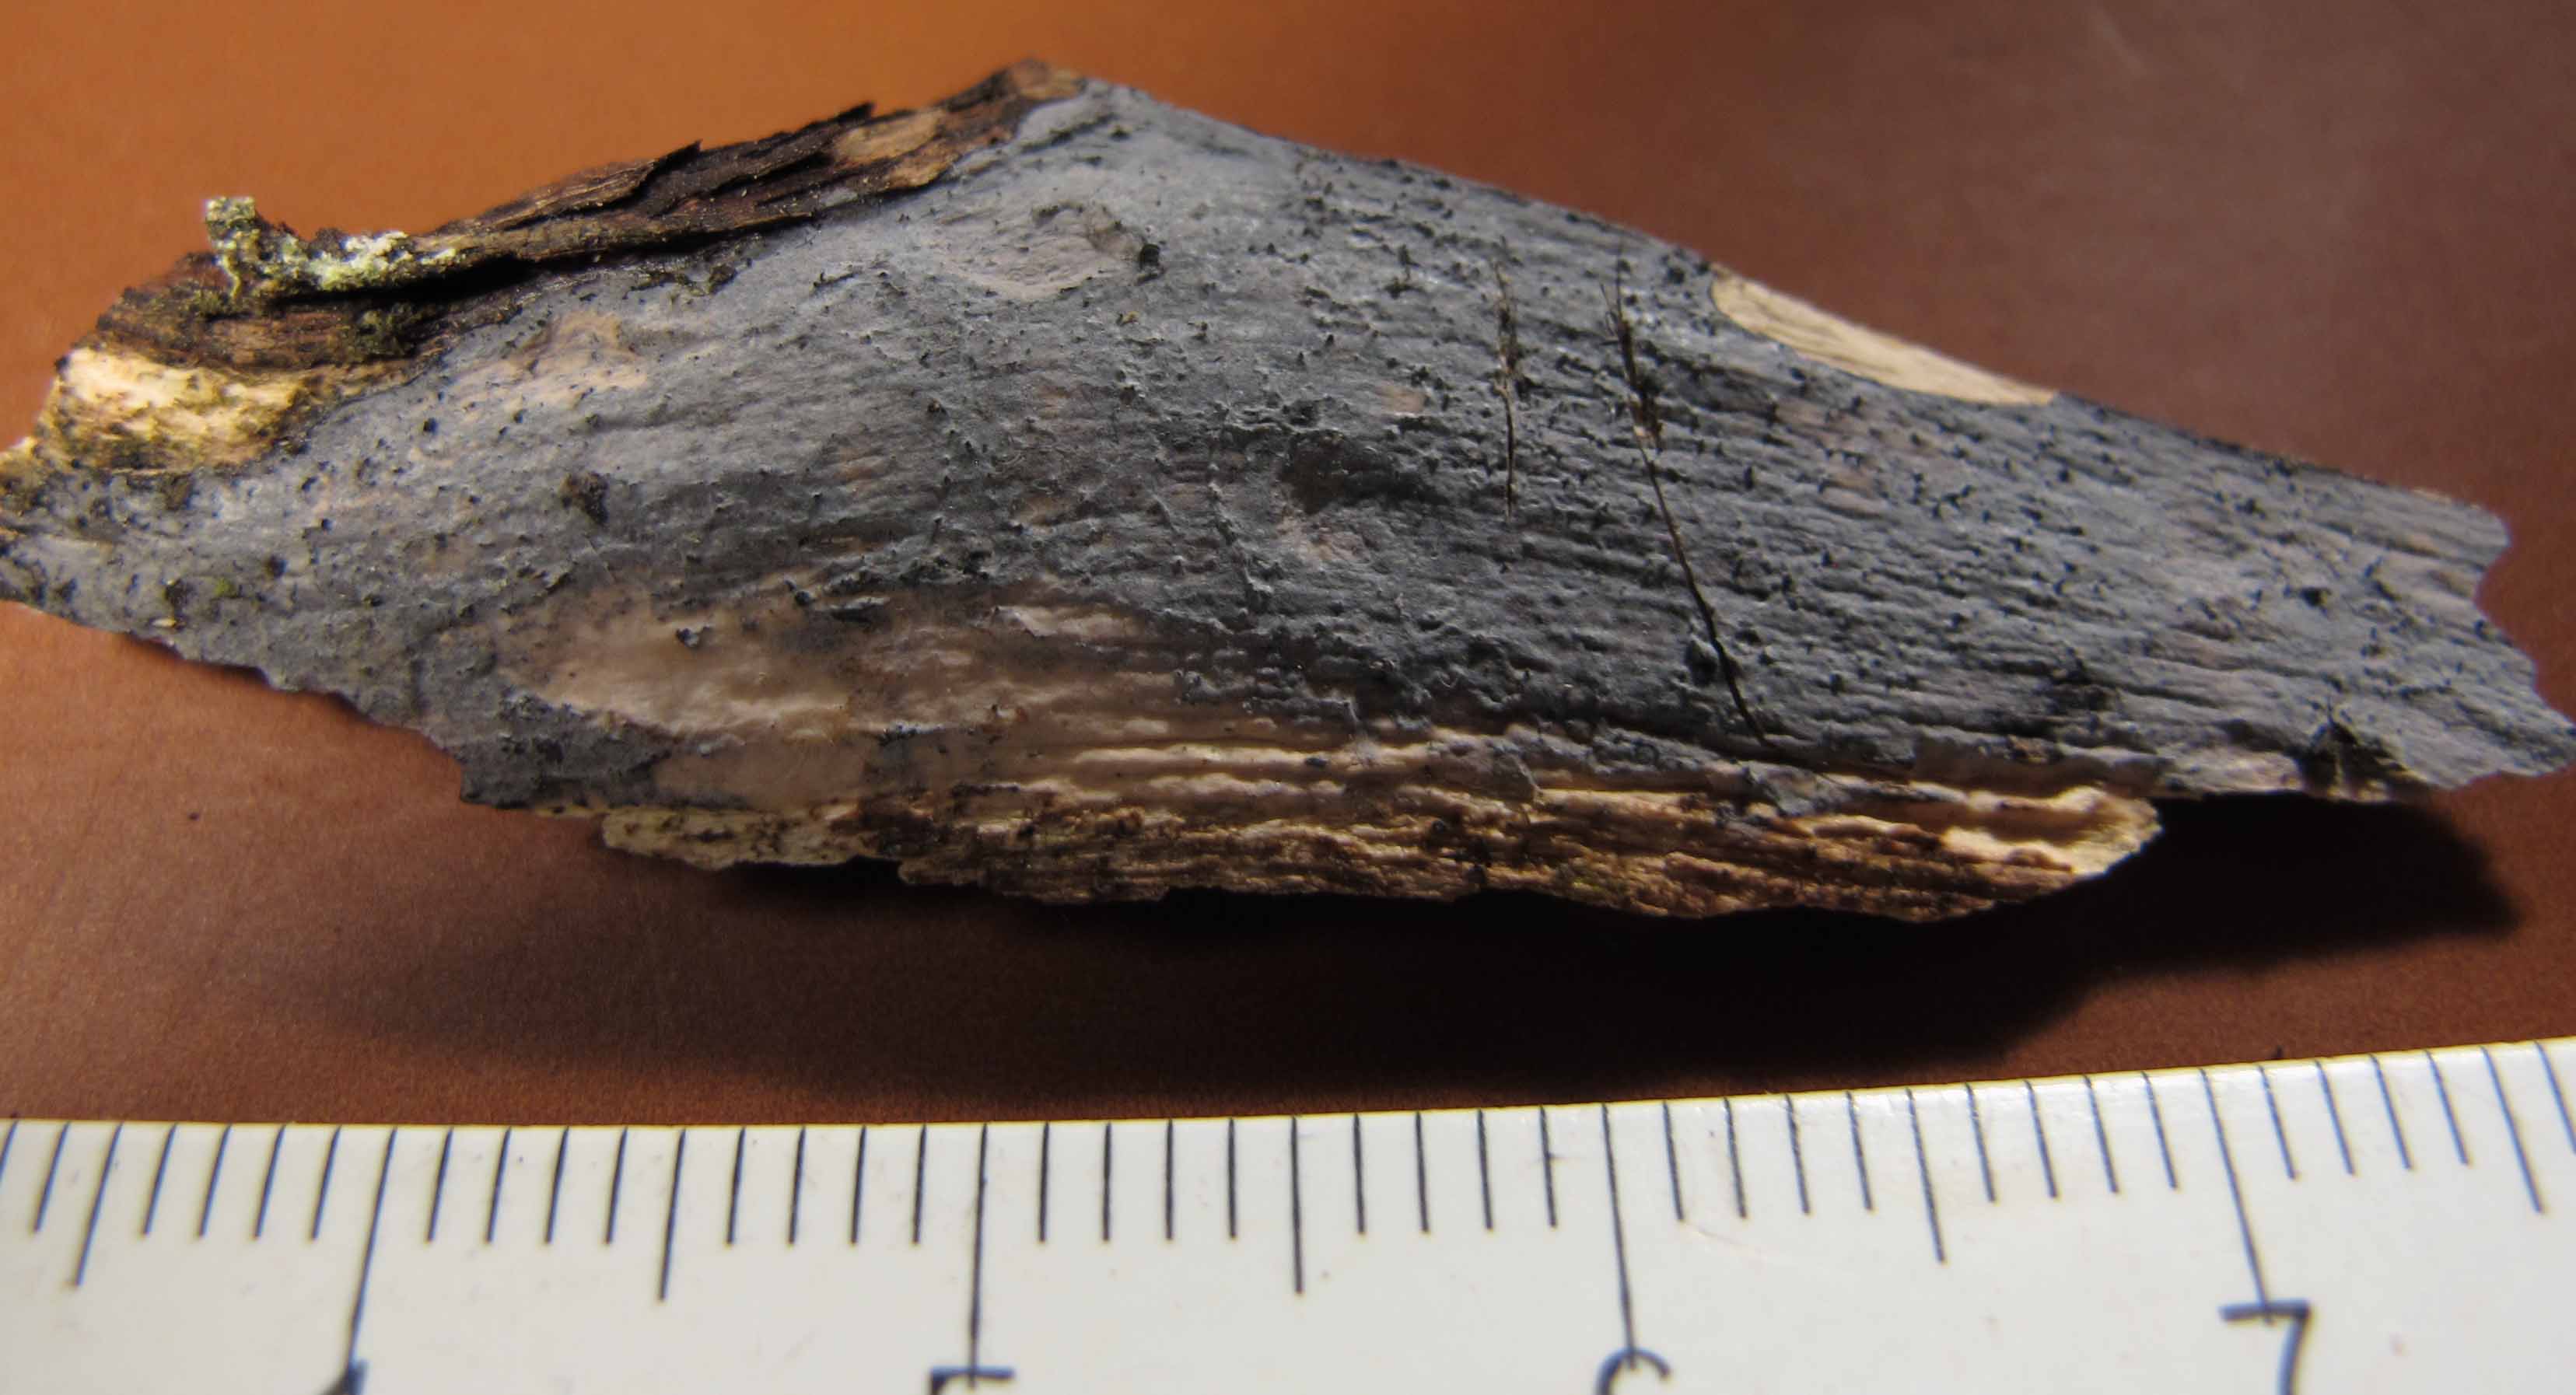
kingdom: Fungi
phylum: Basidiomycota
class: Tremellomycetes
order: Tremellales
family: Exidiaceae
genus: Exidiopsis
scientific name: Exidiopsis effusa
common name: smuk bævrehinde
